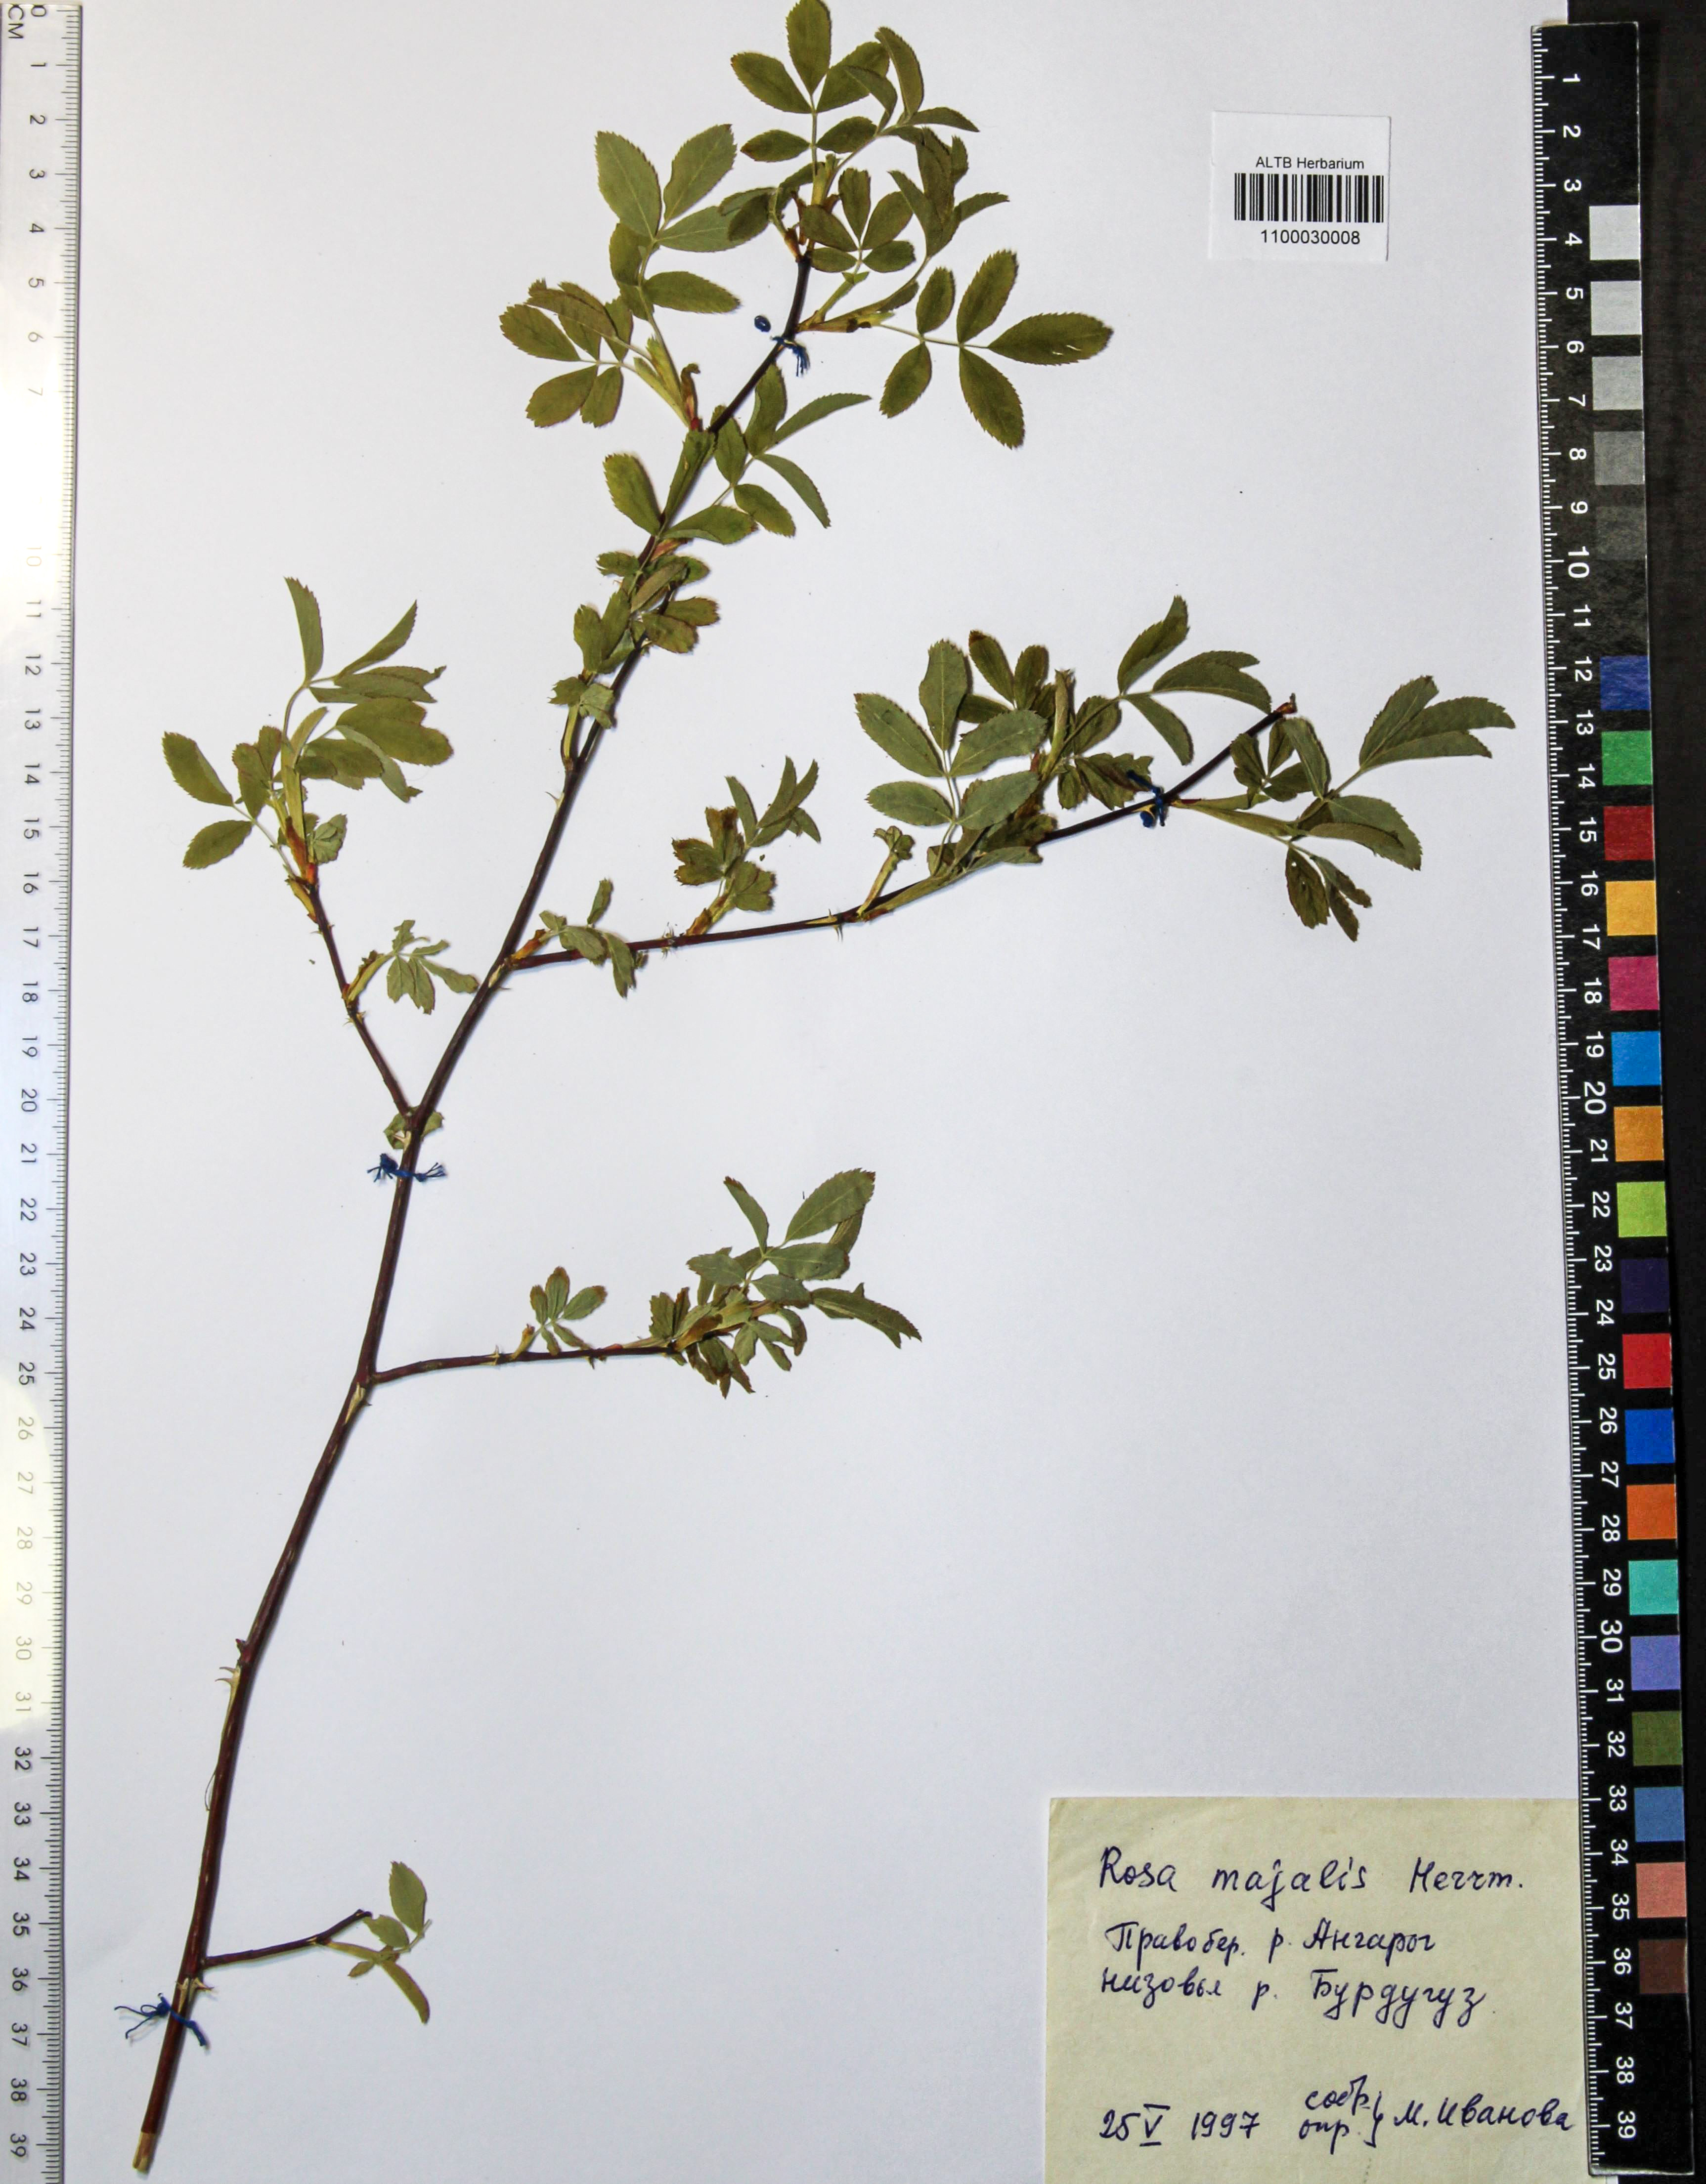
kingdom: Plantae
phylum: Tracheophyta
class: Magnoliopsida
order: Rosales
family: Rosaceae
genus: Rosa
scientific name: Rosa majalis
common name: Cinnamon rose
